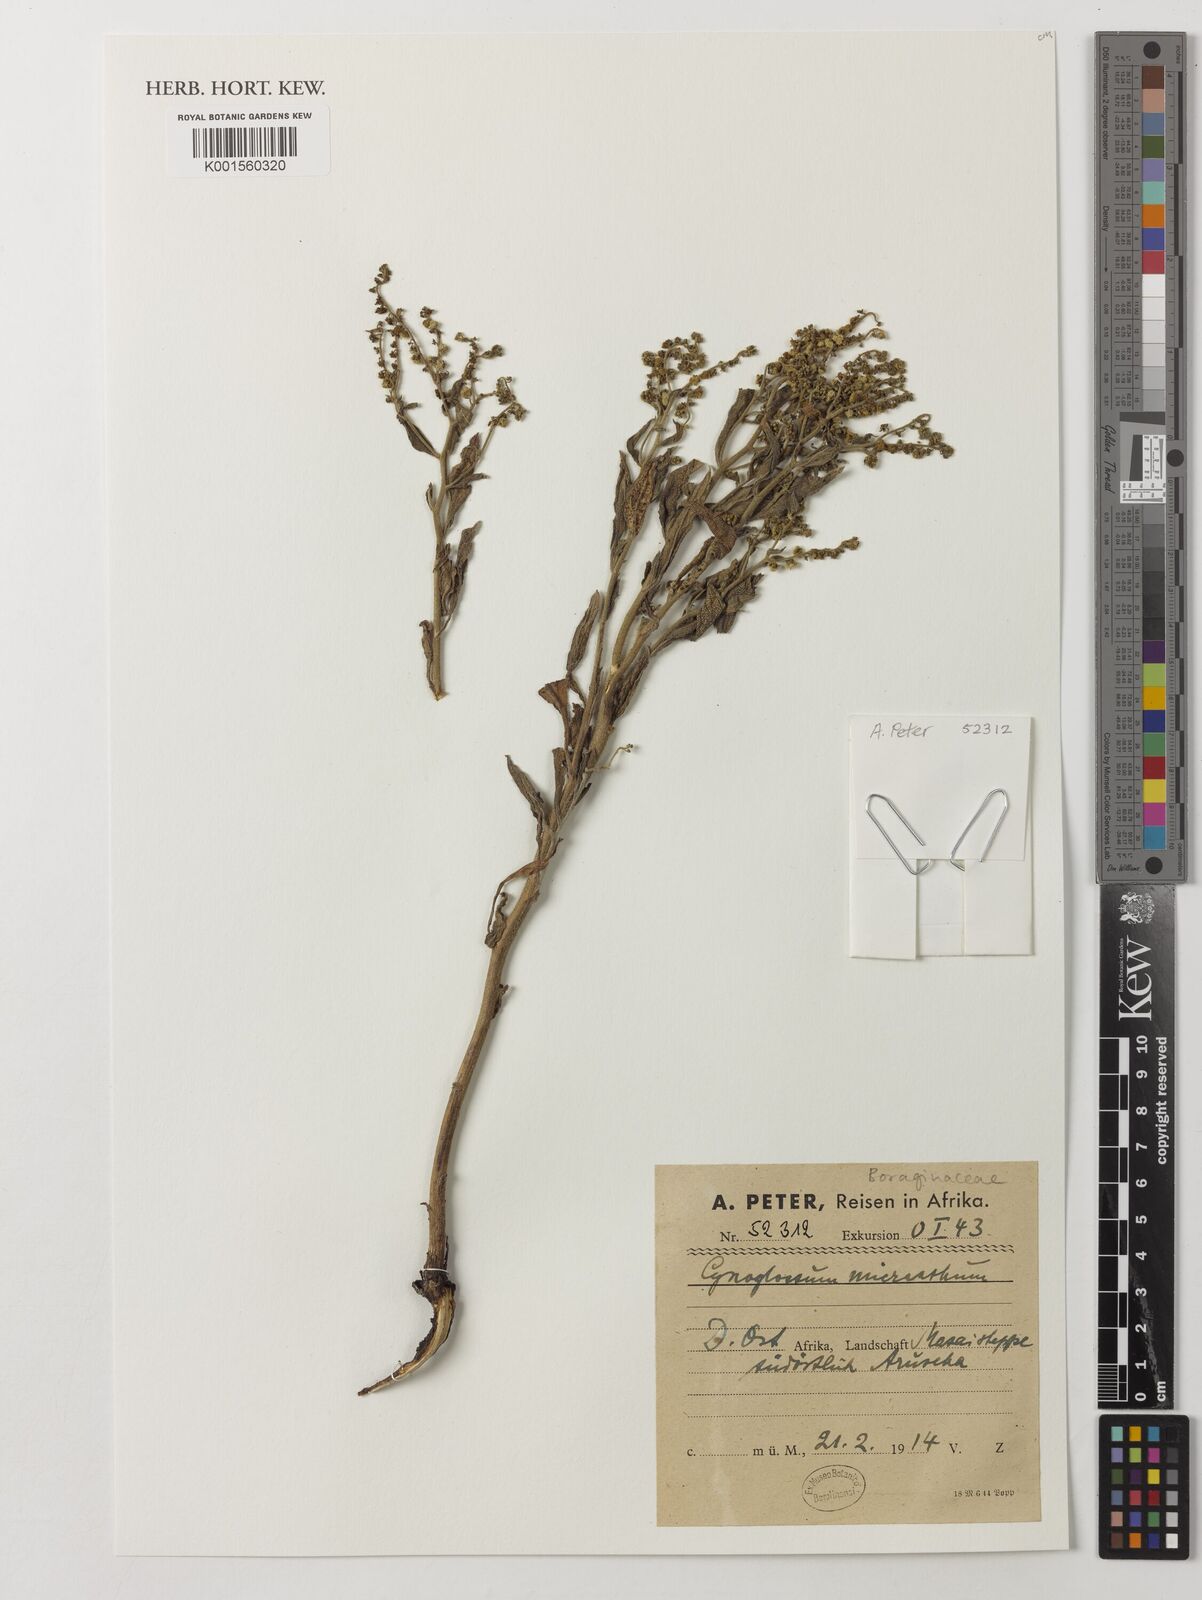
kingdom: Plantae
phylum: Tracheophyta
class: Magnoliopsida
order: Boraginales
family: Boraginaceae
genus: Cynoglossum
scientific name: Cynoglossum
